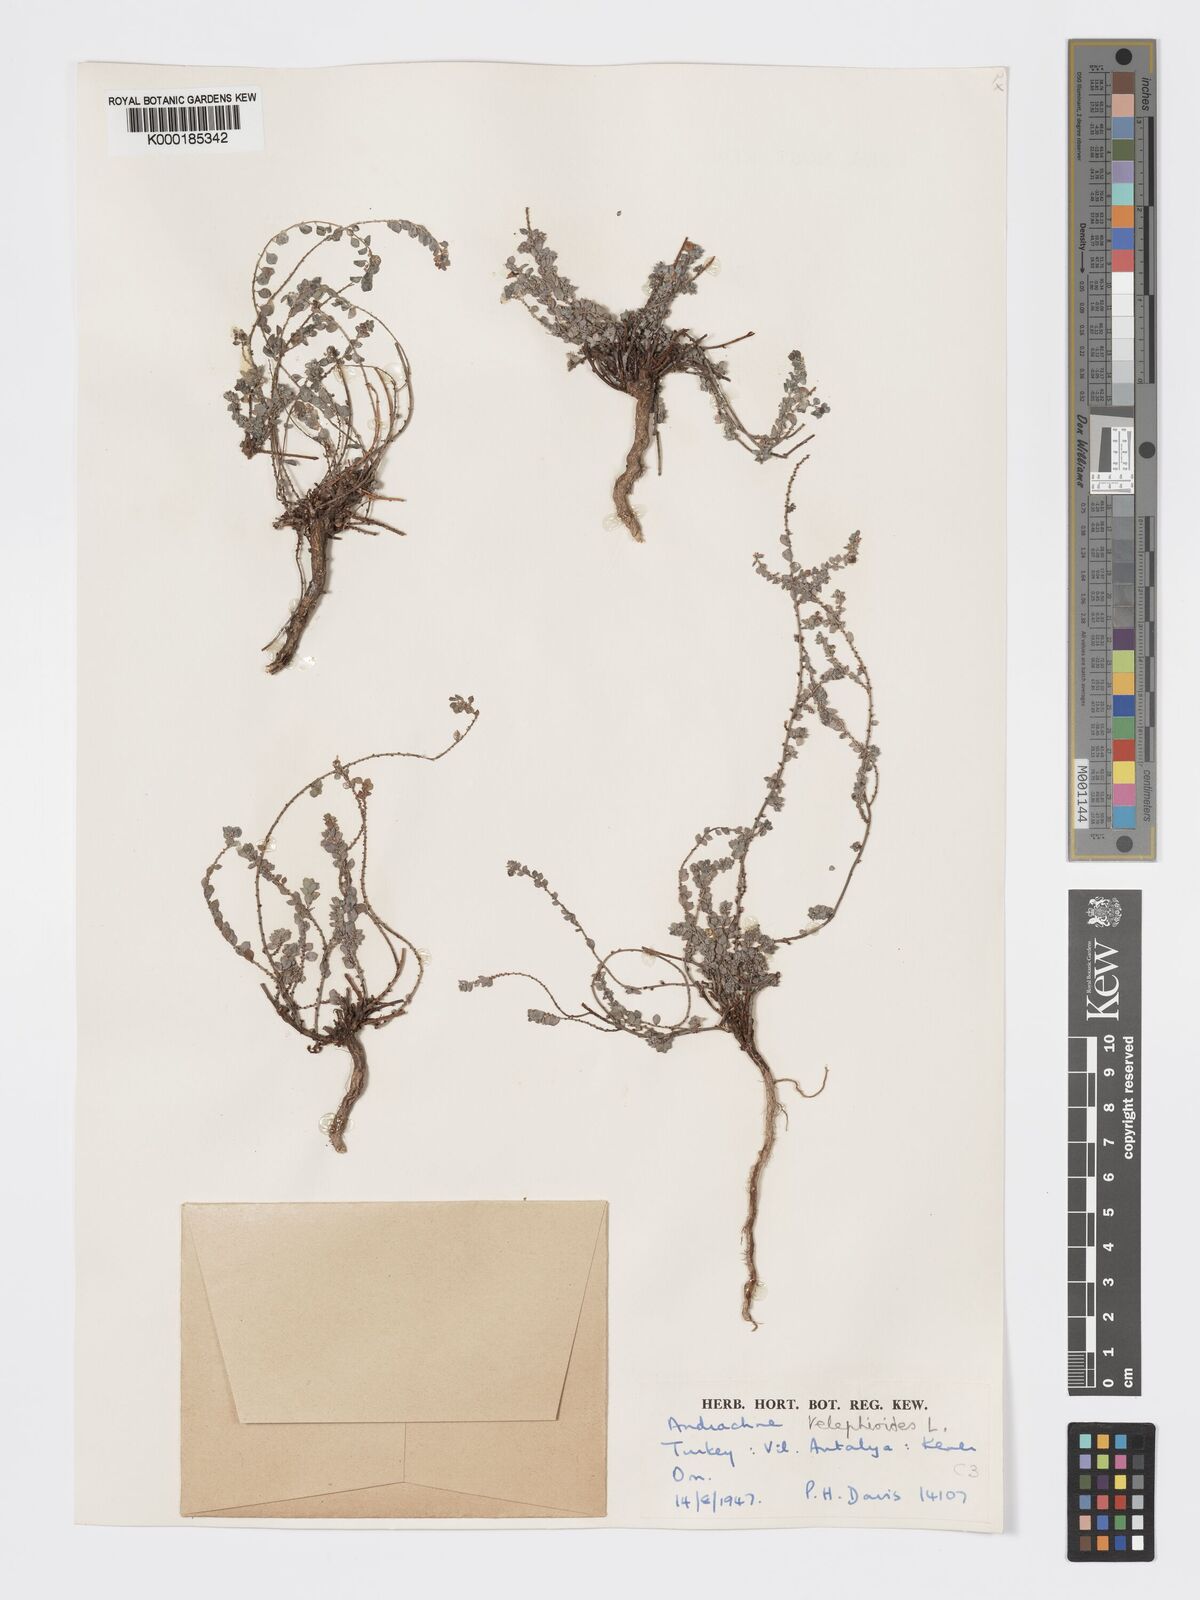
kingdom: Plantae
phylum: Tracheophyta
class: Magnoliopsida
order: Malpighiales
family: Phyllanthaceae
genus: Andrachne
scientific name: Andrachne telephioides
